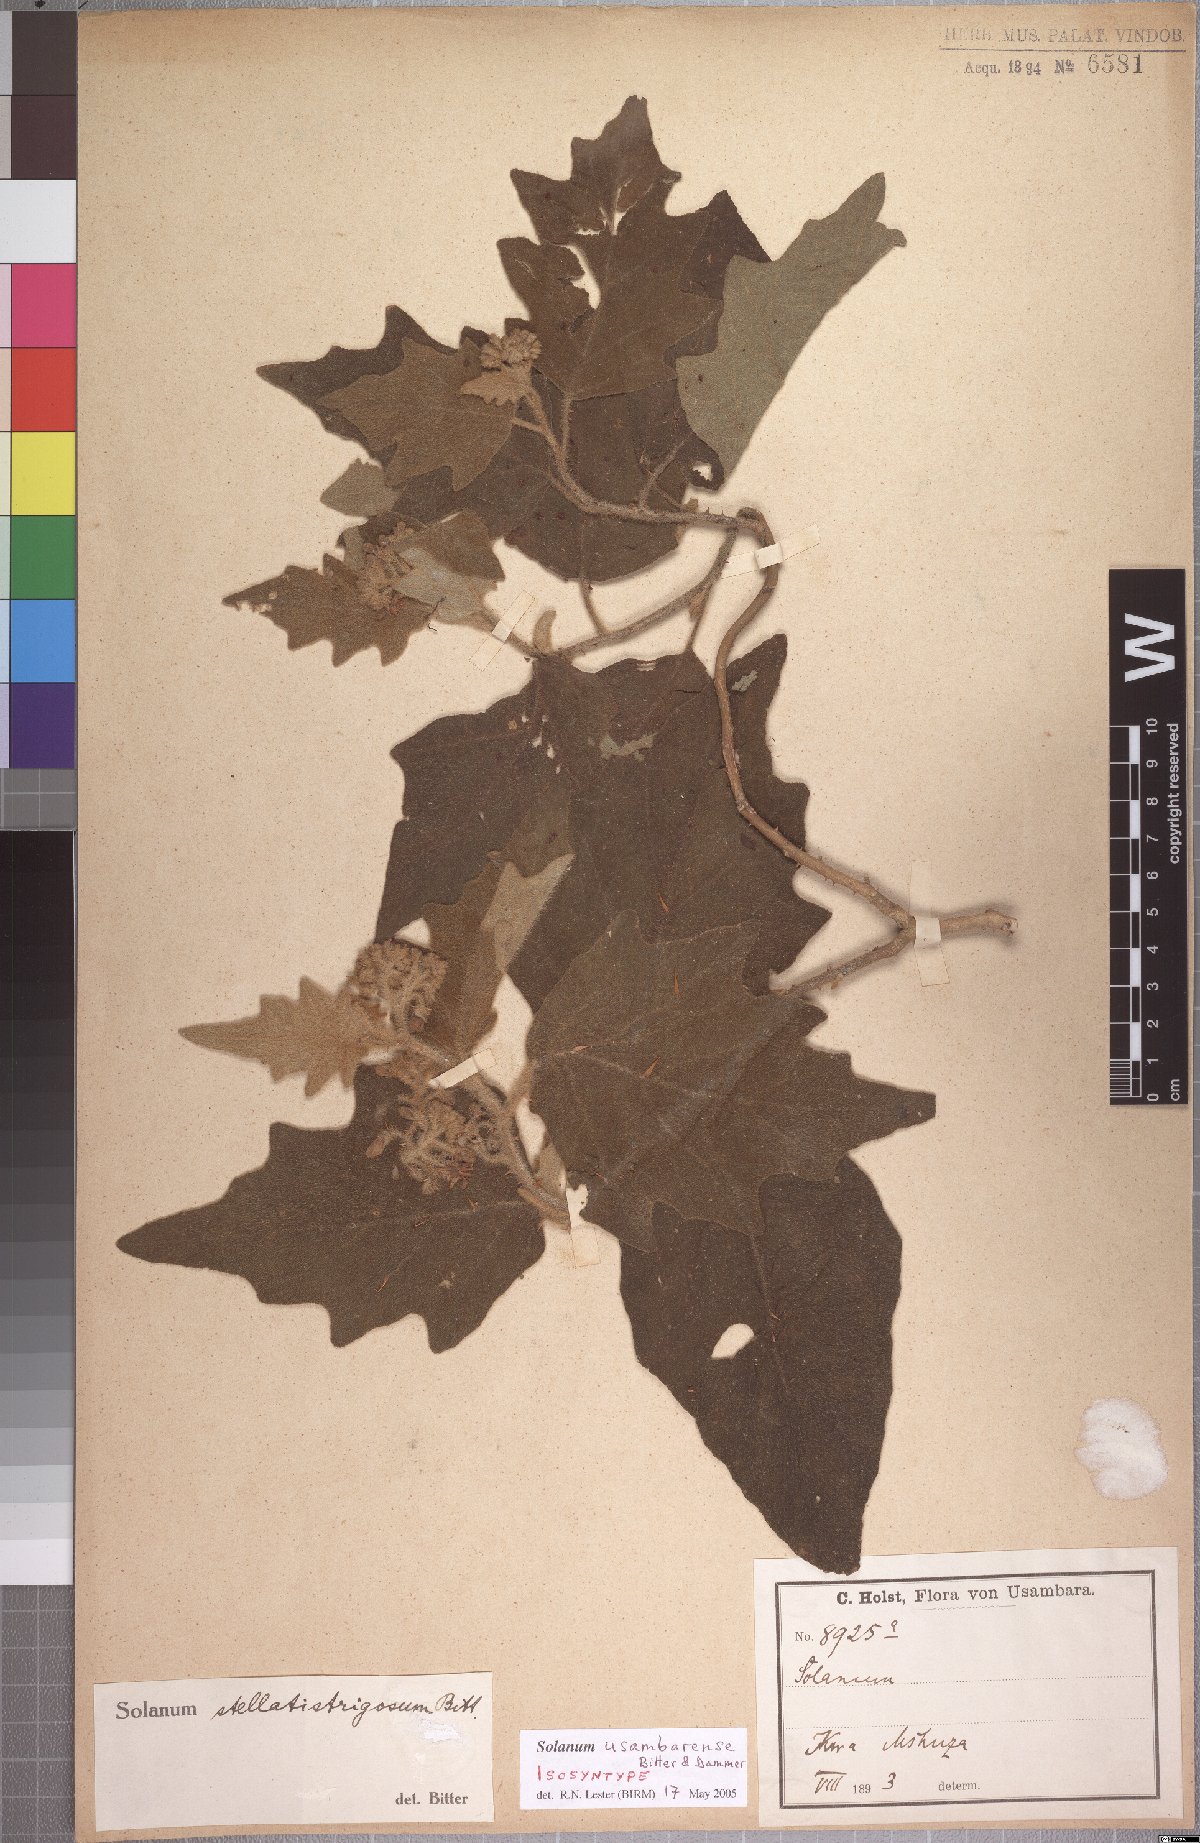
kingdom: Plantae
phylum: Tracheophyta
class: Magnoliopsida
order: Solanales
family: Solanaceae
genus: Solanum
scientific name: Solanum usambarense
